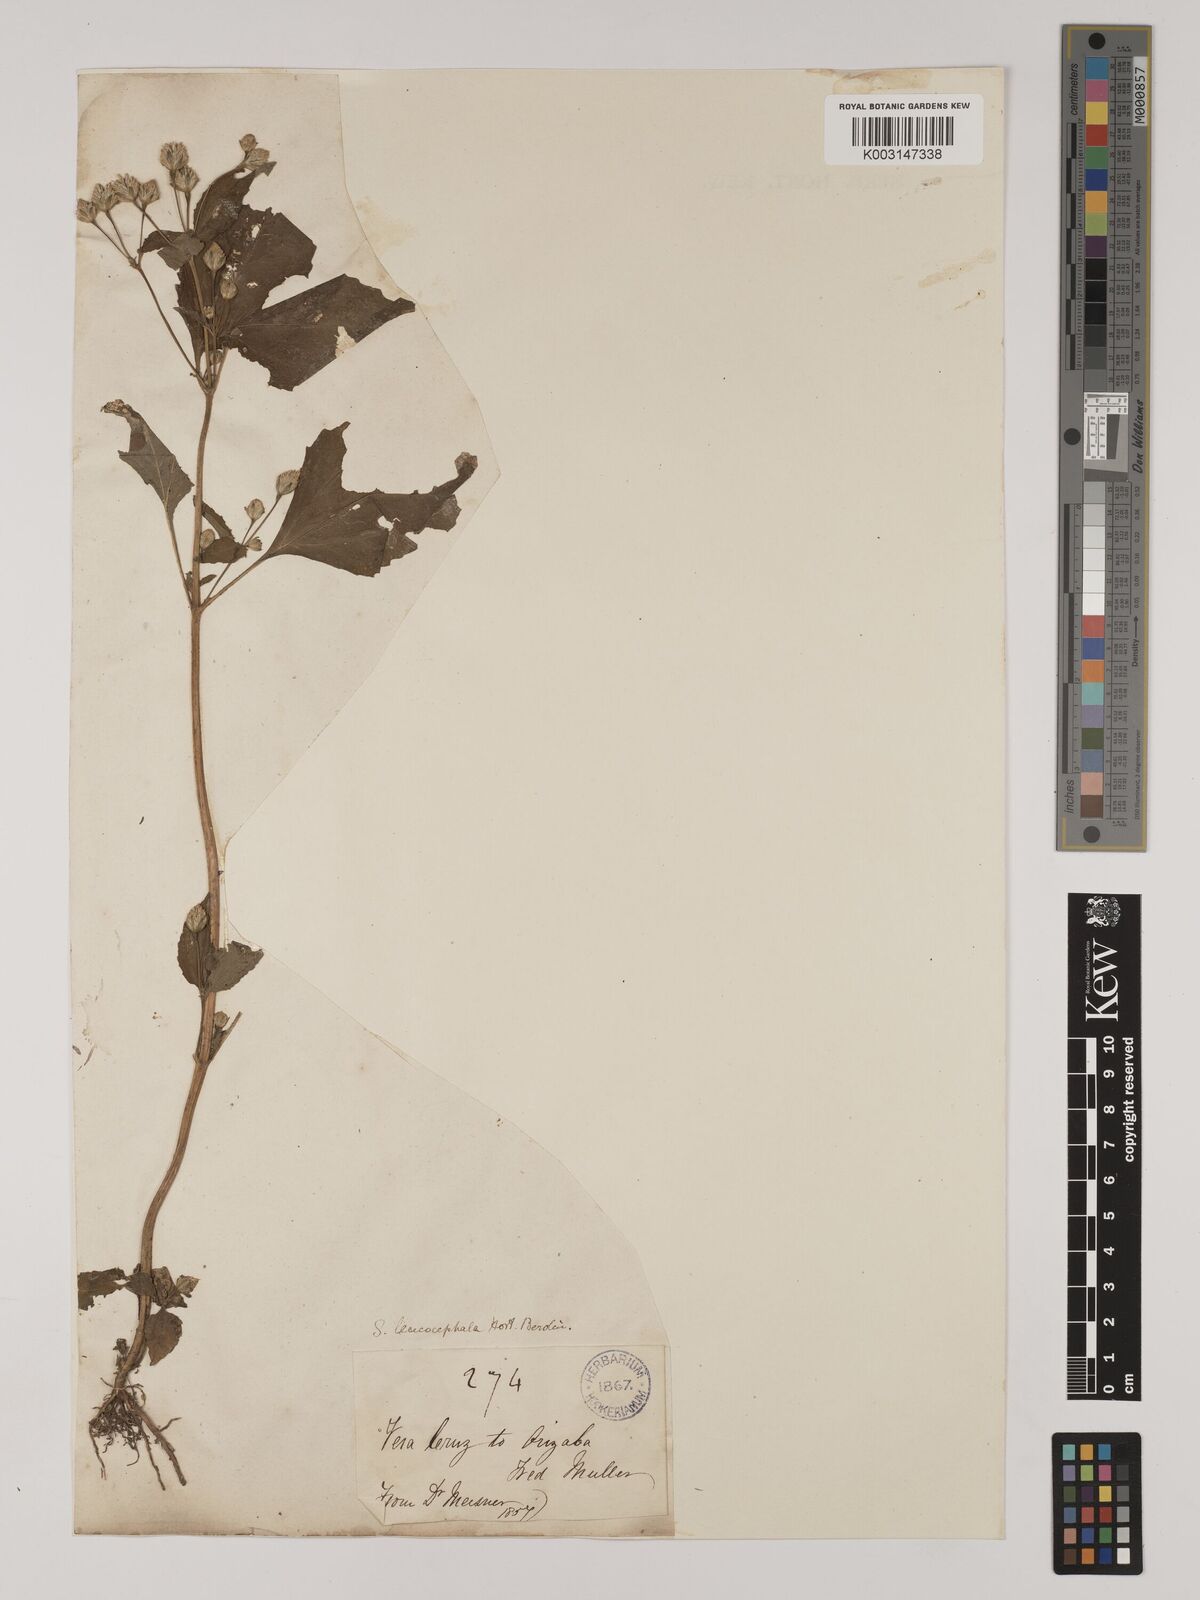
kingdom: Plantae
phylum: Tracheophyta
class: Magnoliopsida
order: Asterales
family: Asteraceae
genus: Acmella
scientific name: Acmella radicans
